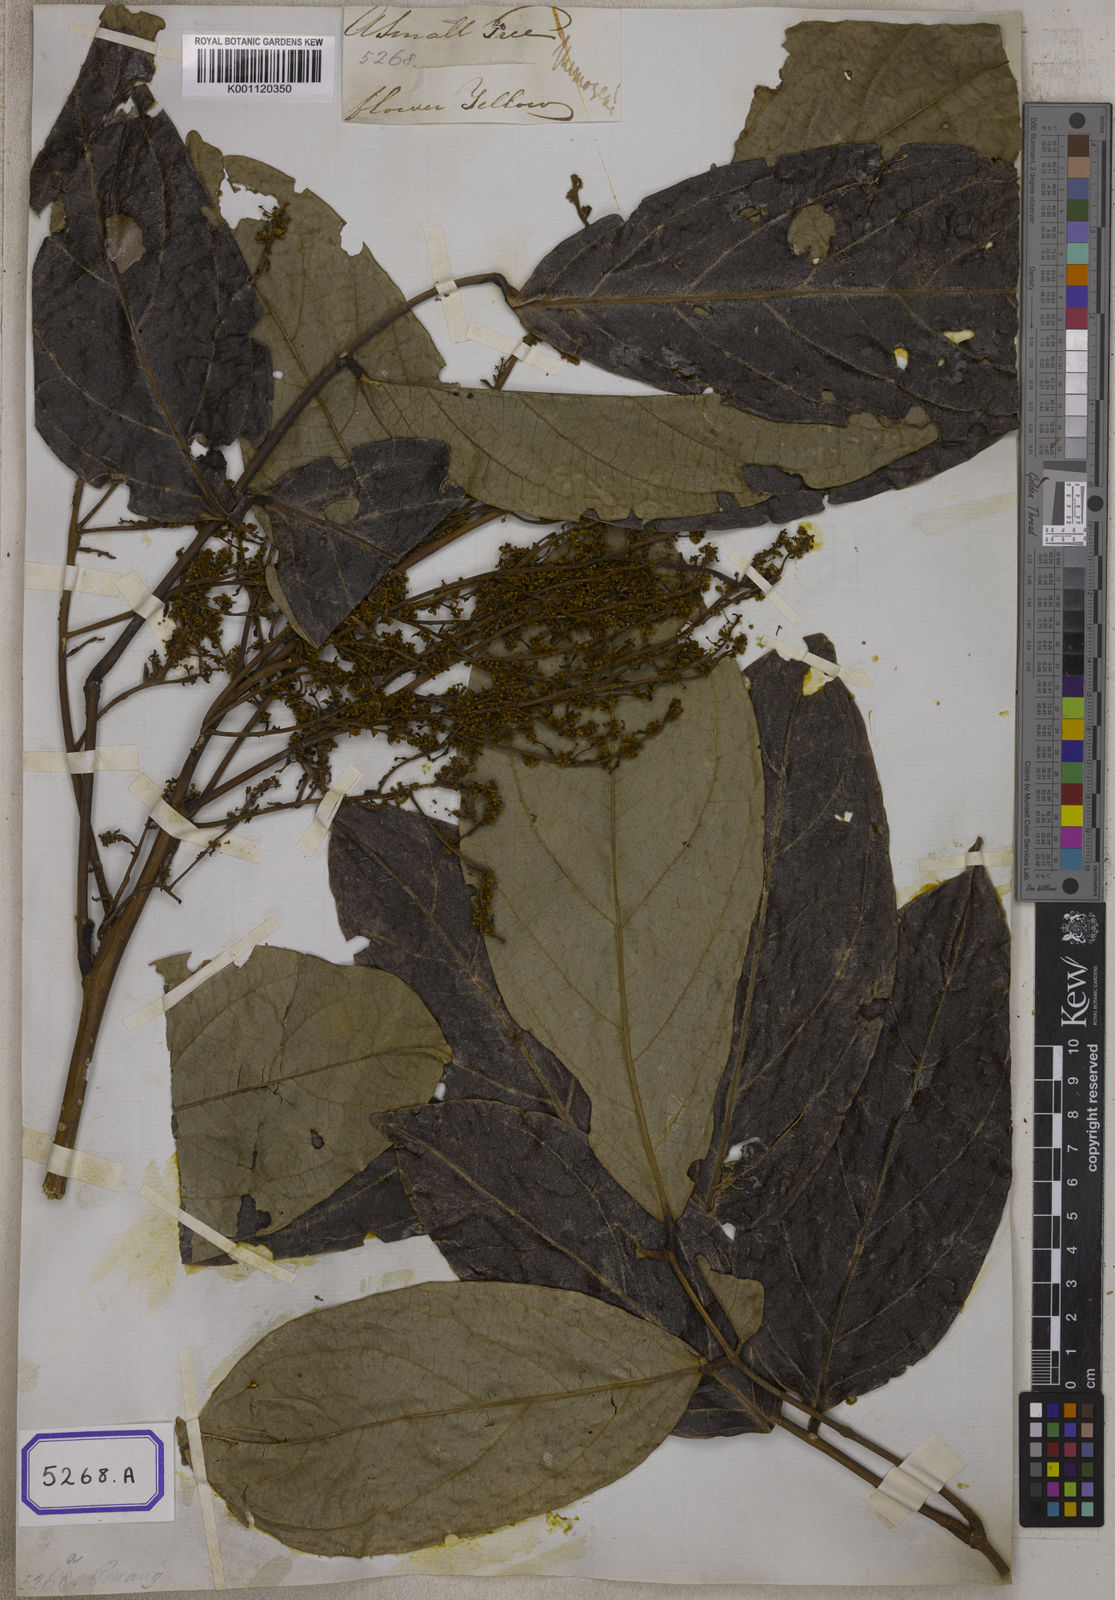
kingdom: Plantae
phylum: Tracheophyta
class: Magnoliopsida
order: Fabales
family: Fabaceae
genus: Archidendron
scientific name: Archidendron jiringa
